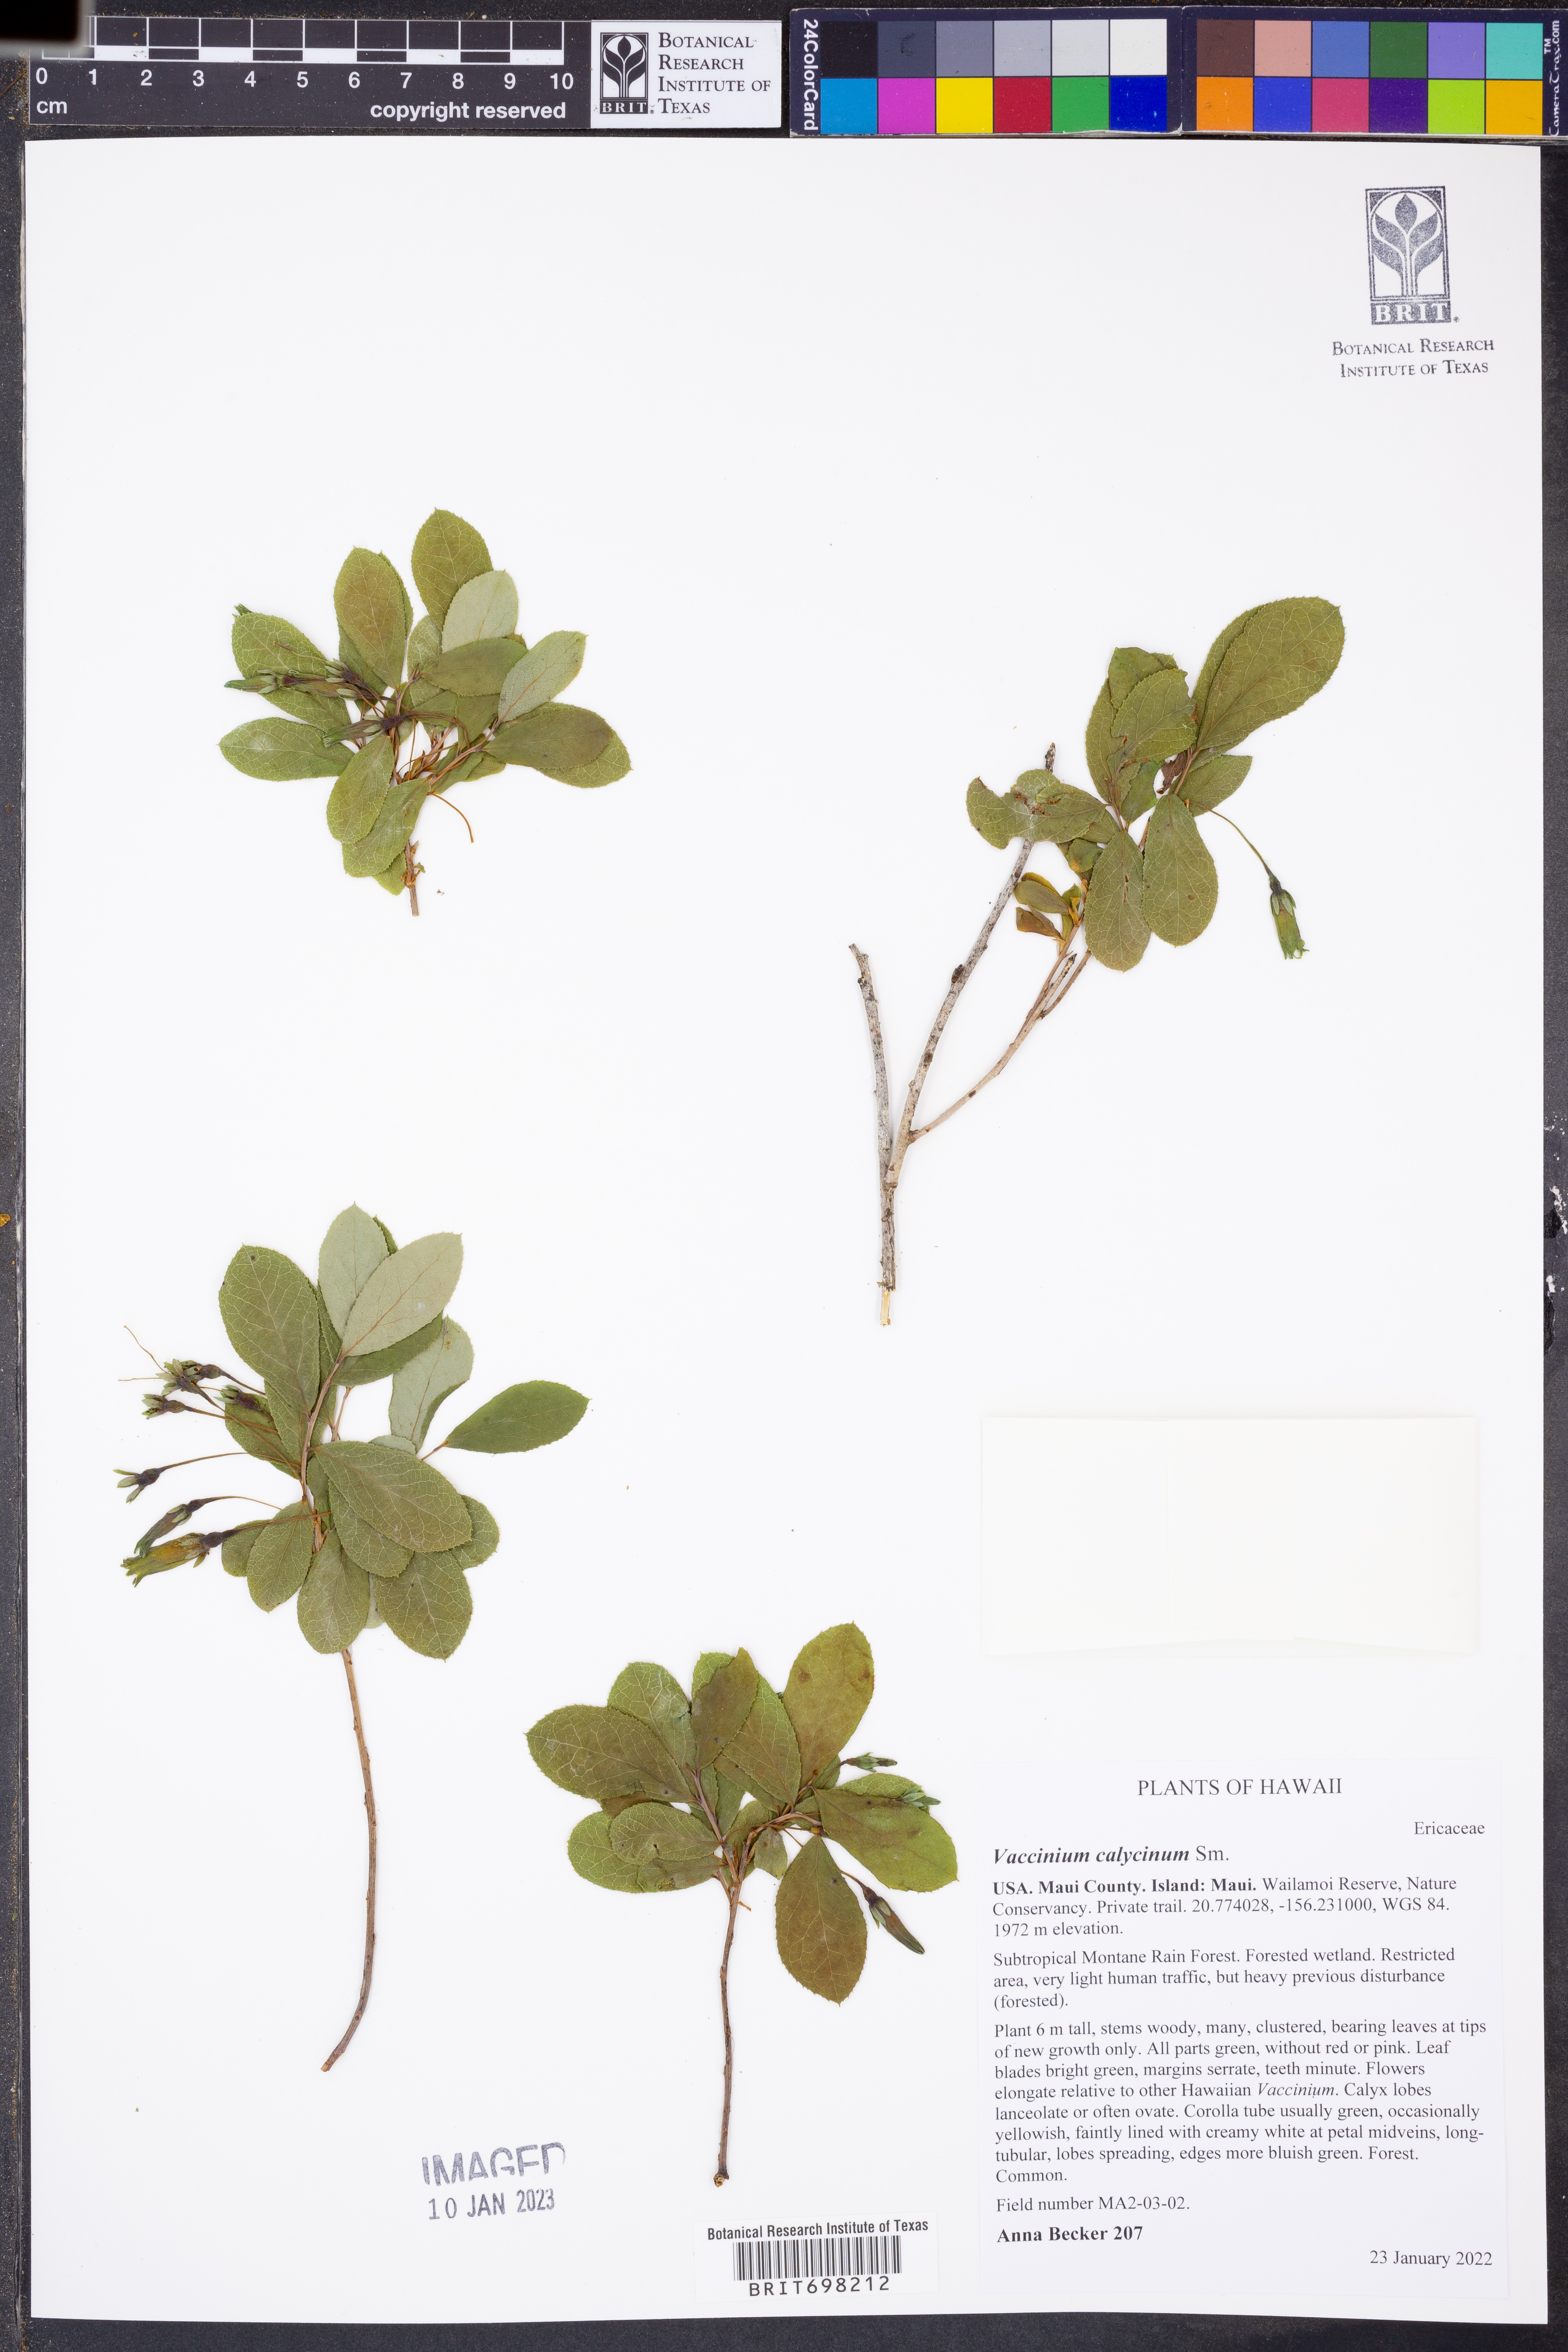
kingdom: Plantae
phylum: Tracheophyta
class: Magnoliopsida
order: Ericales
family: Ericaceae
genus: Vaccinium
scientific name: Vaccinium calycinum
